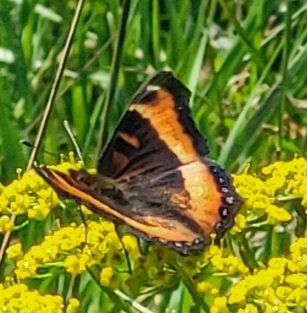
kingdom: Animalia
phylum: Arthropoda
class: Insecta
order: Lepidoptera
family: Nymphalidae
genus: Aglais
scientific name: Aglais milberti
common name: Milbert's Tortoiseshell
